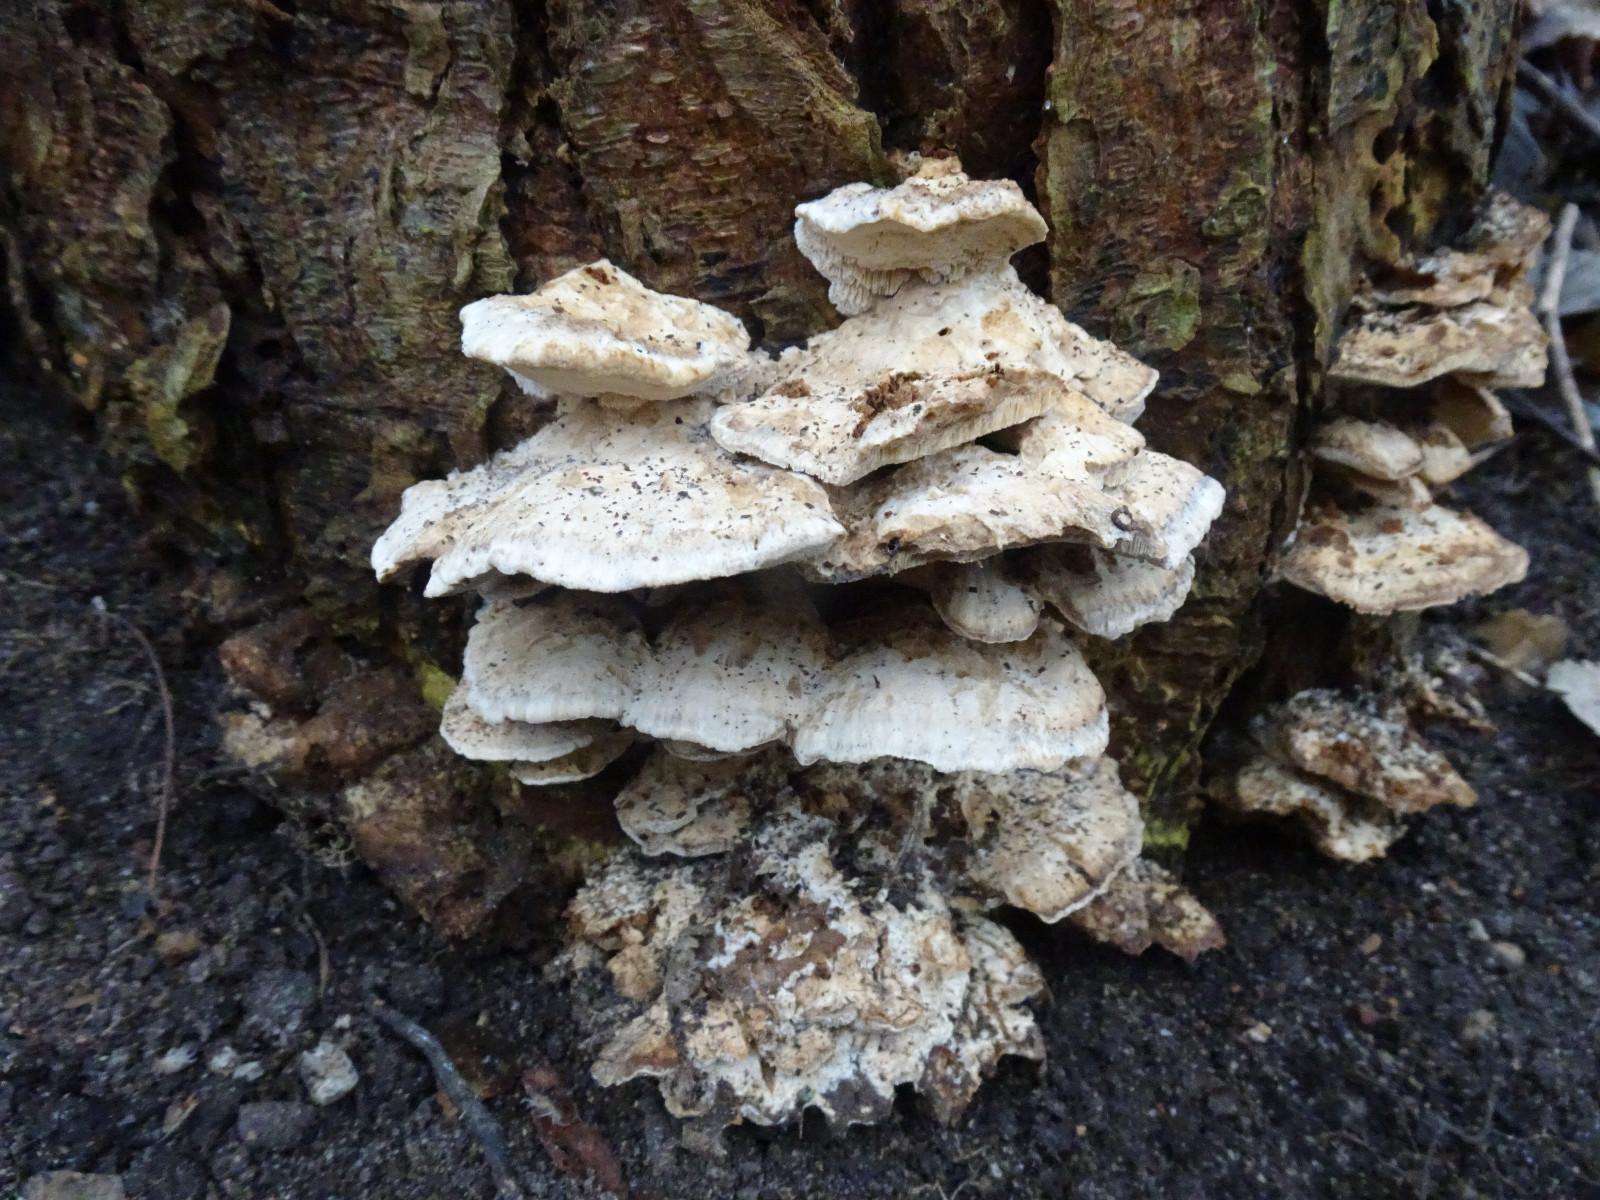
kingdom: Fungi
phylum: Basidiomycota
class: Agaricomycetes
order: Polyporales
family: Phanerochaetaceae
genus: Bjerkandera
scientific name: Bjerkandera fumosa
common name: grågul sodporesvamp
